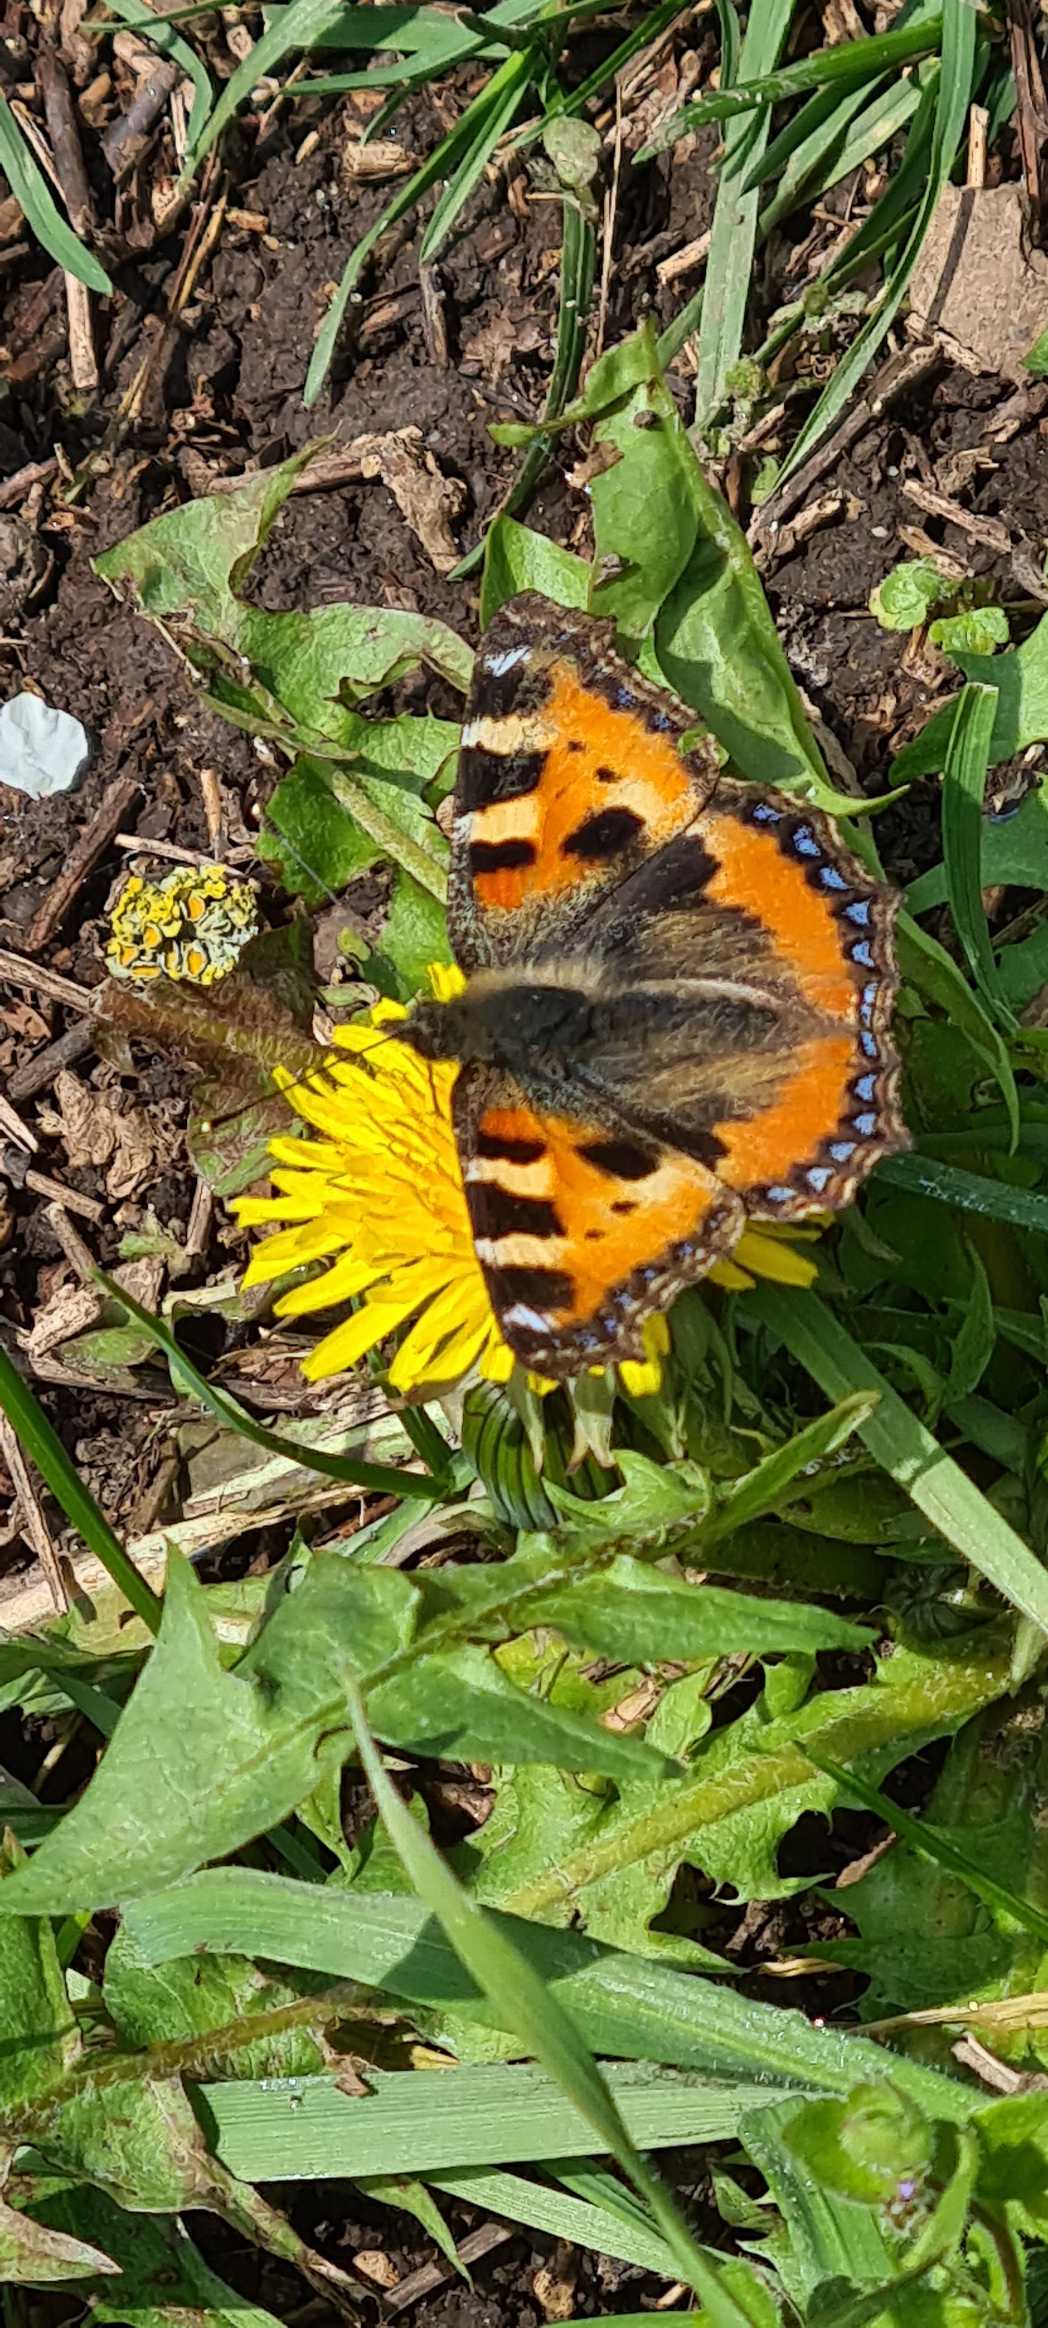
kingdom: Animalia
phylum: Arthropoda
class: Insecta
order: Lepidoptera
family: Nymphalidae
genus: Aglais
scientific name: Aglais urticae
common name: Nældens takvinge
